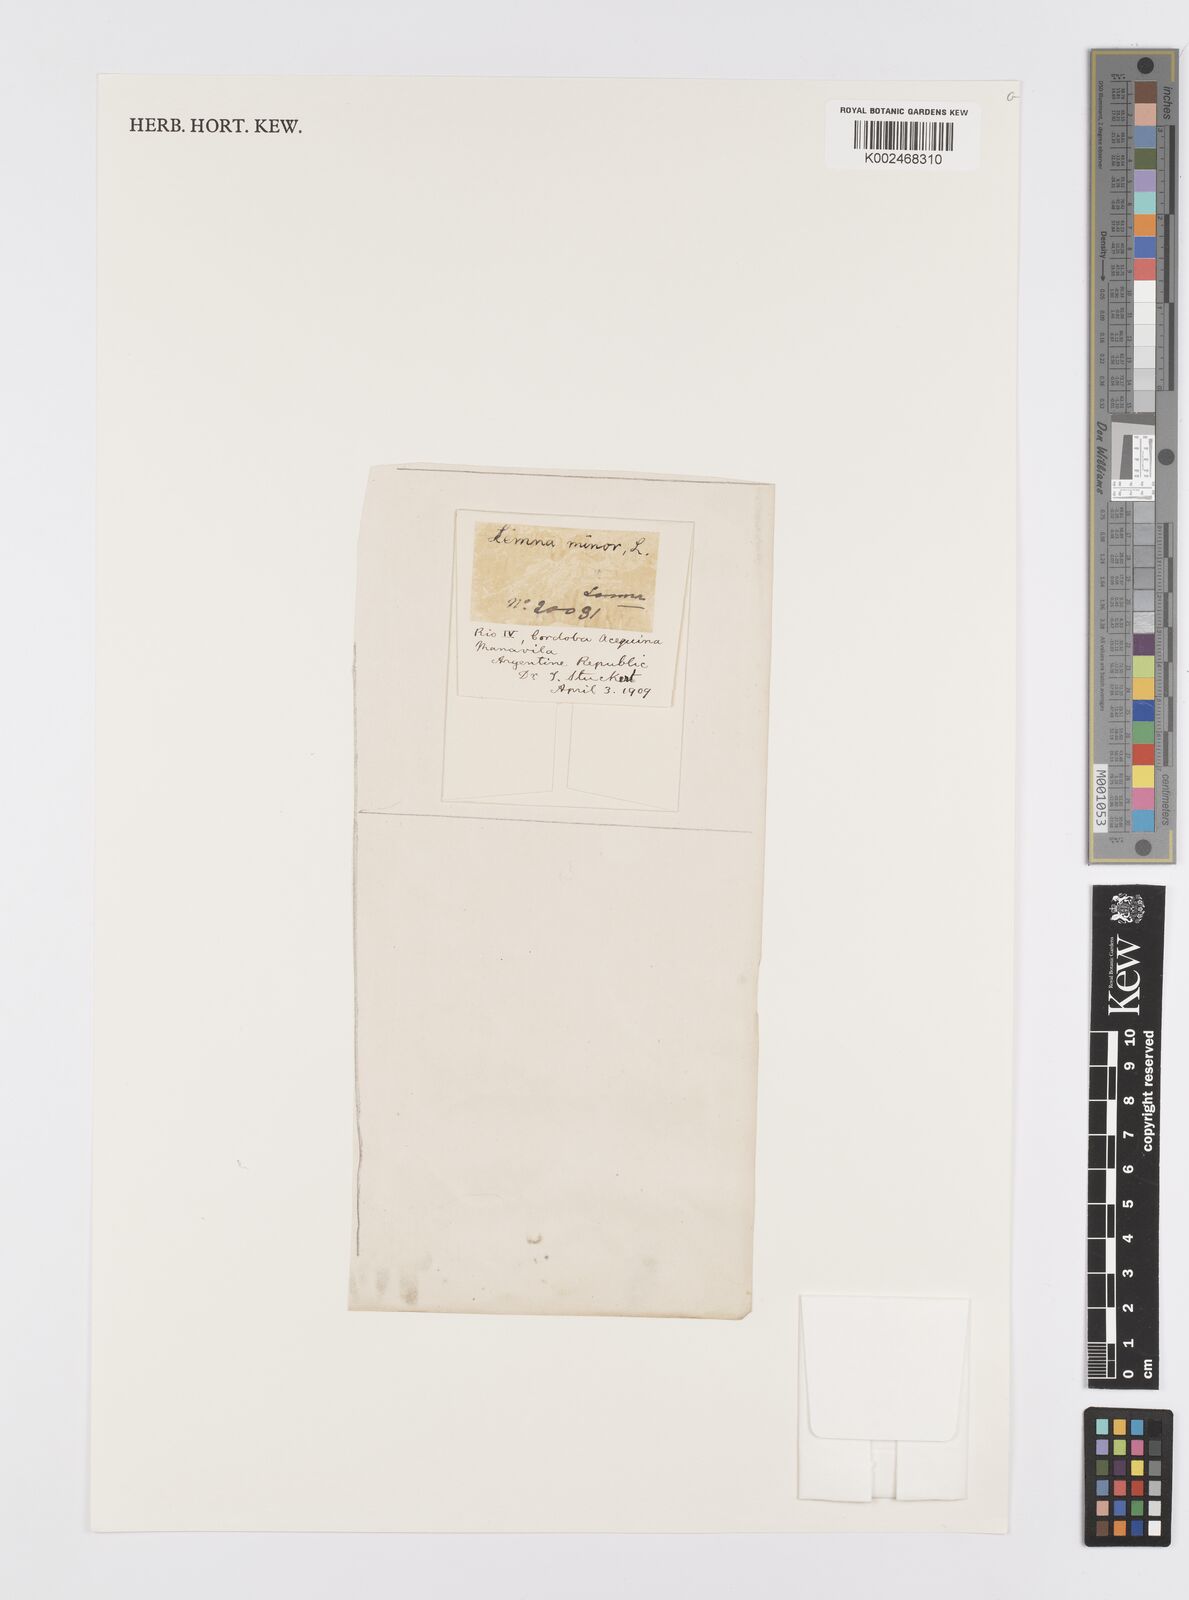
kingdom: Plantae
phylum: Tracheophyta
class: Liliopsida
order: Alismatales
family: Araceae
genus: Lemna
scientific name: Lemna minor
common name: Common duckweed
